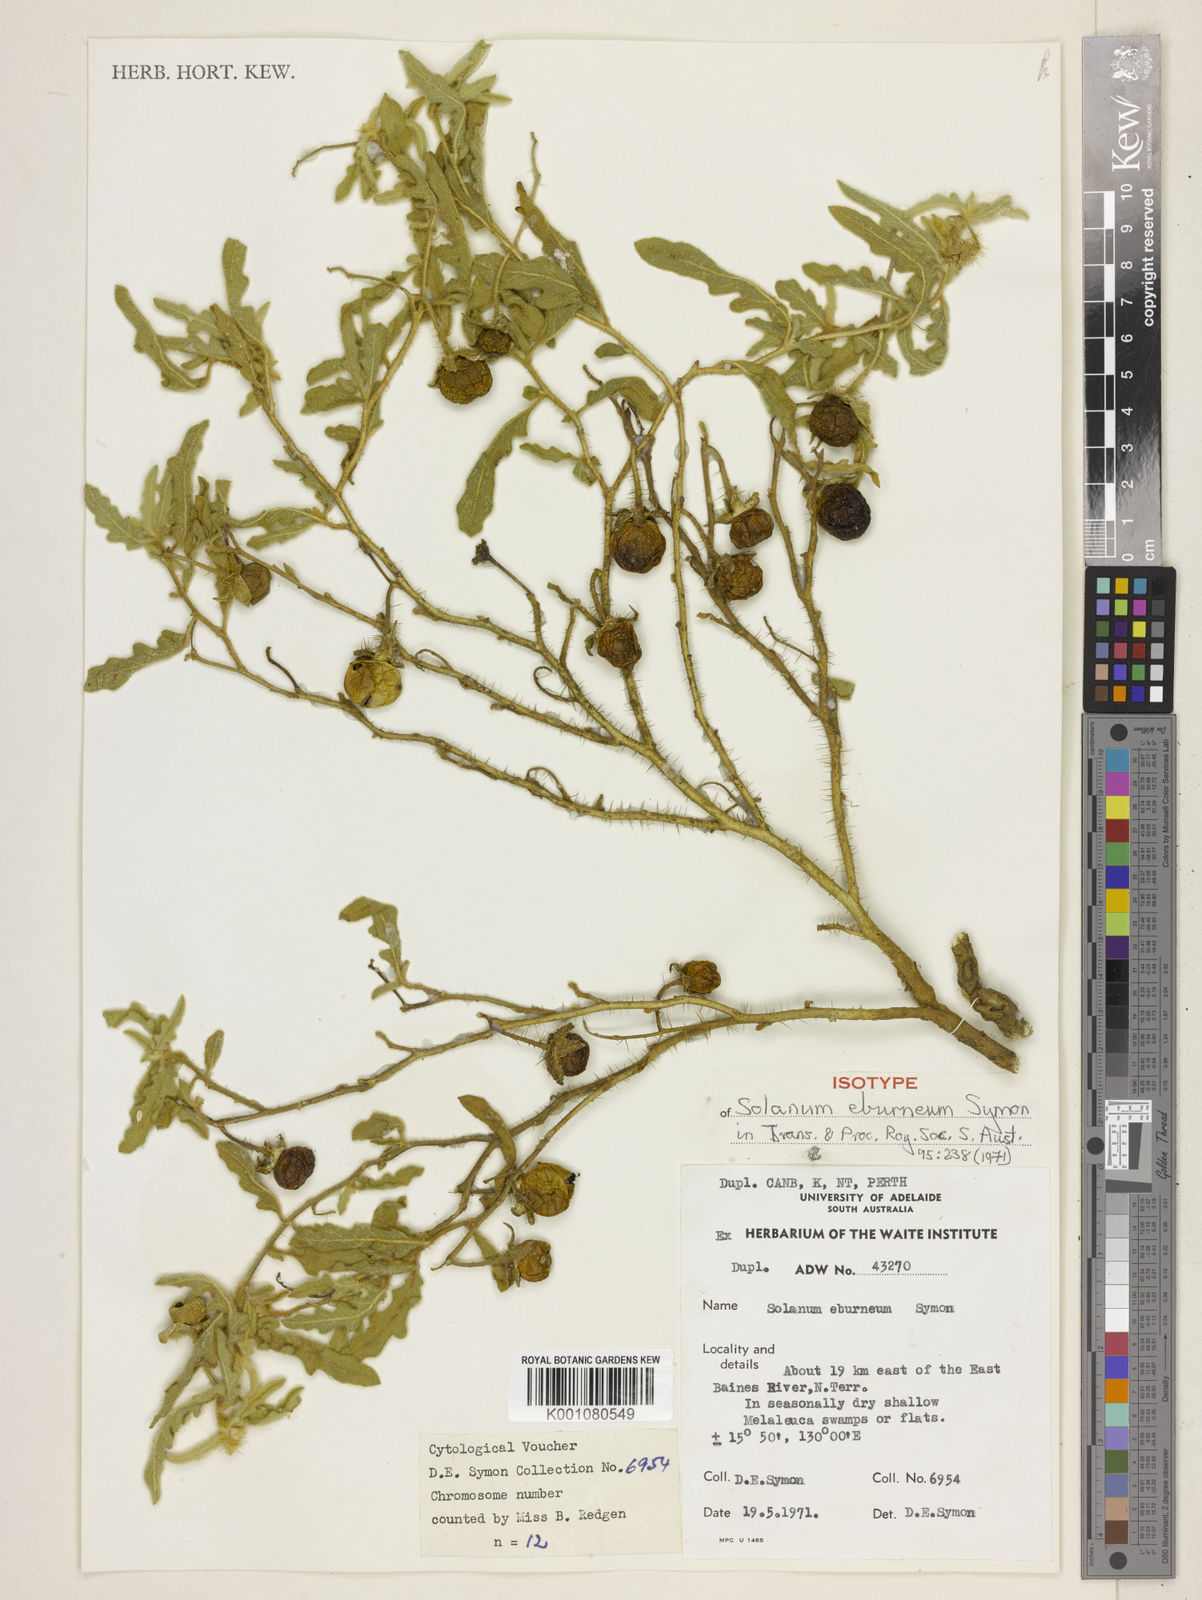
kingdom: Plantae
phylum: Tracheophyta
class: Magnoliopsida
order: Solanales
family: Solanaceae
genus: Solanum
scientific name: Solanum eburneum
